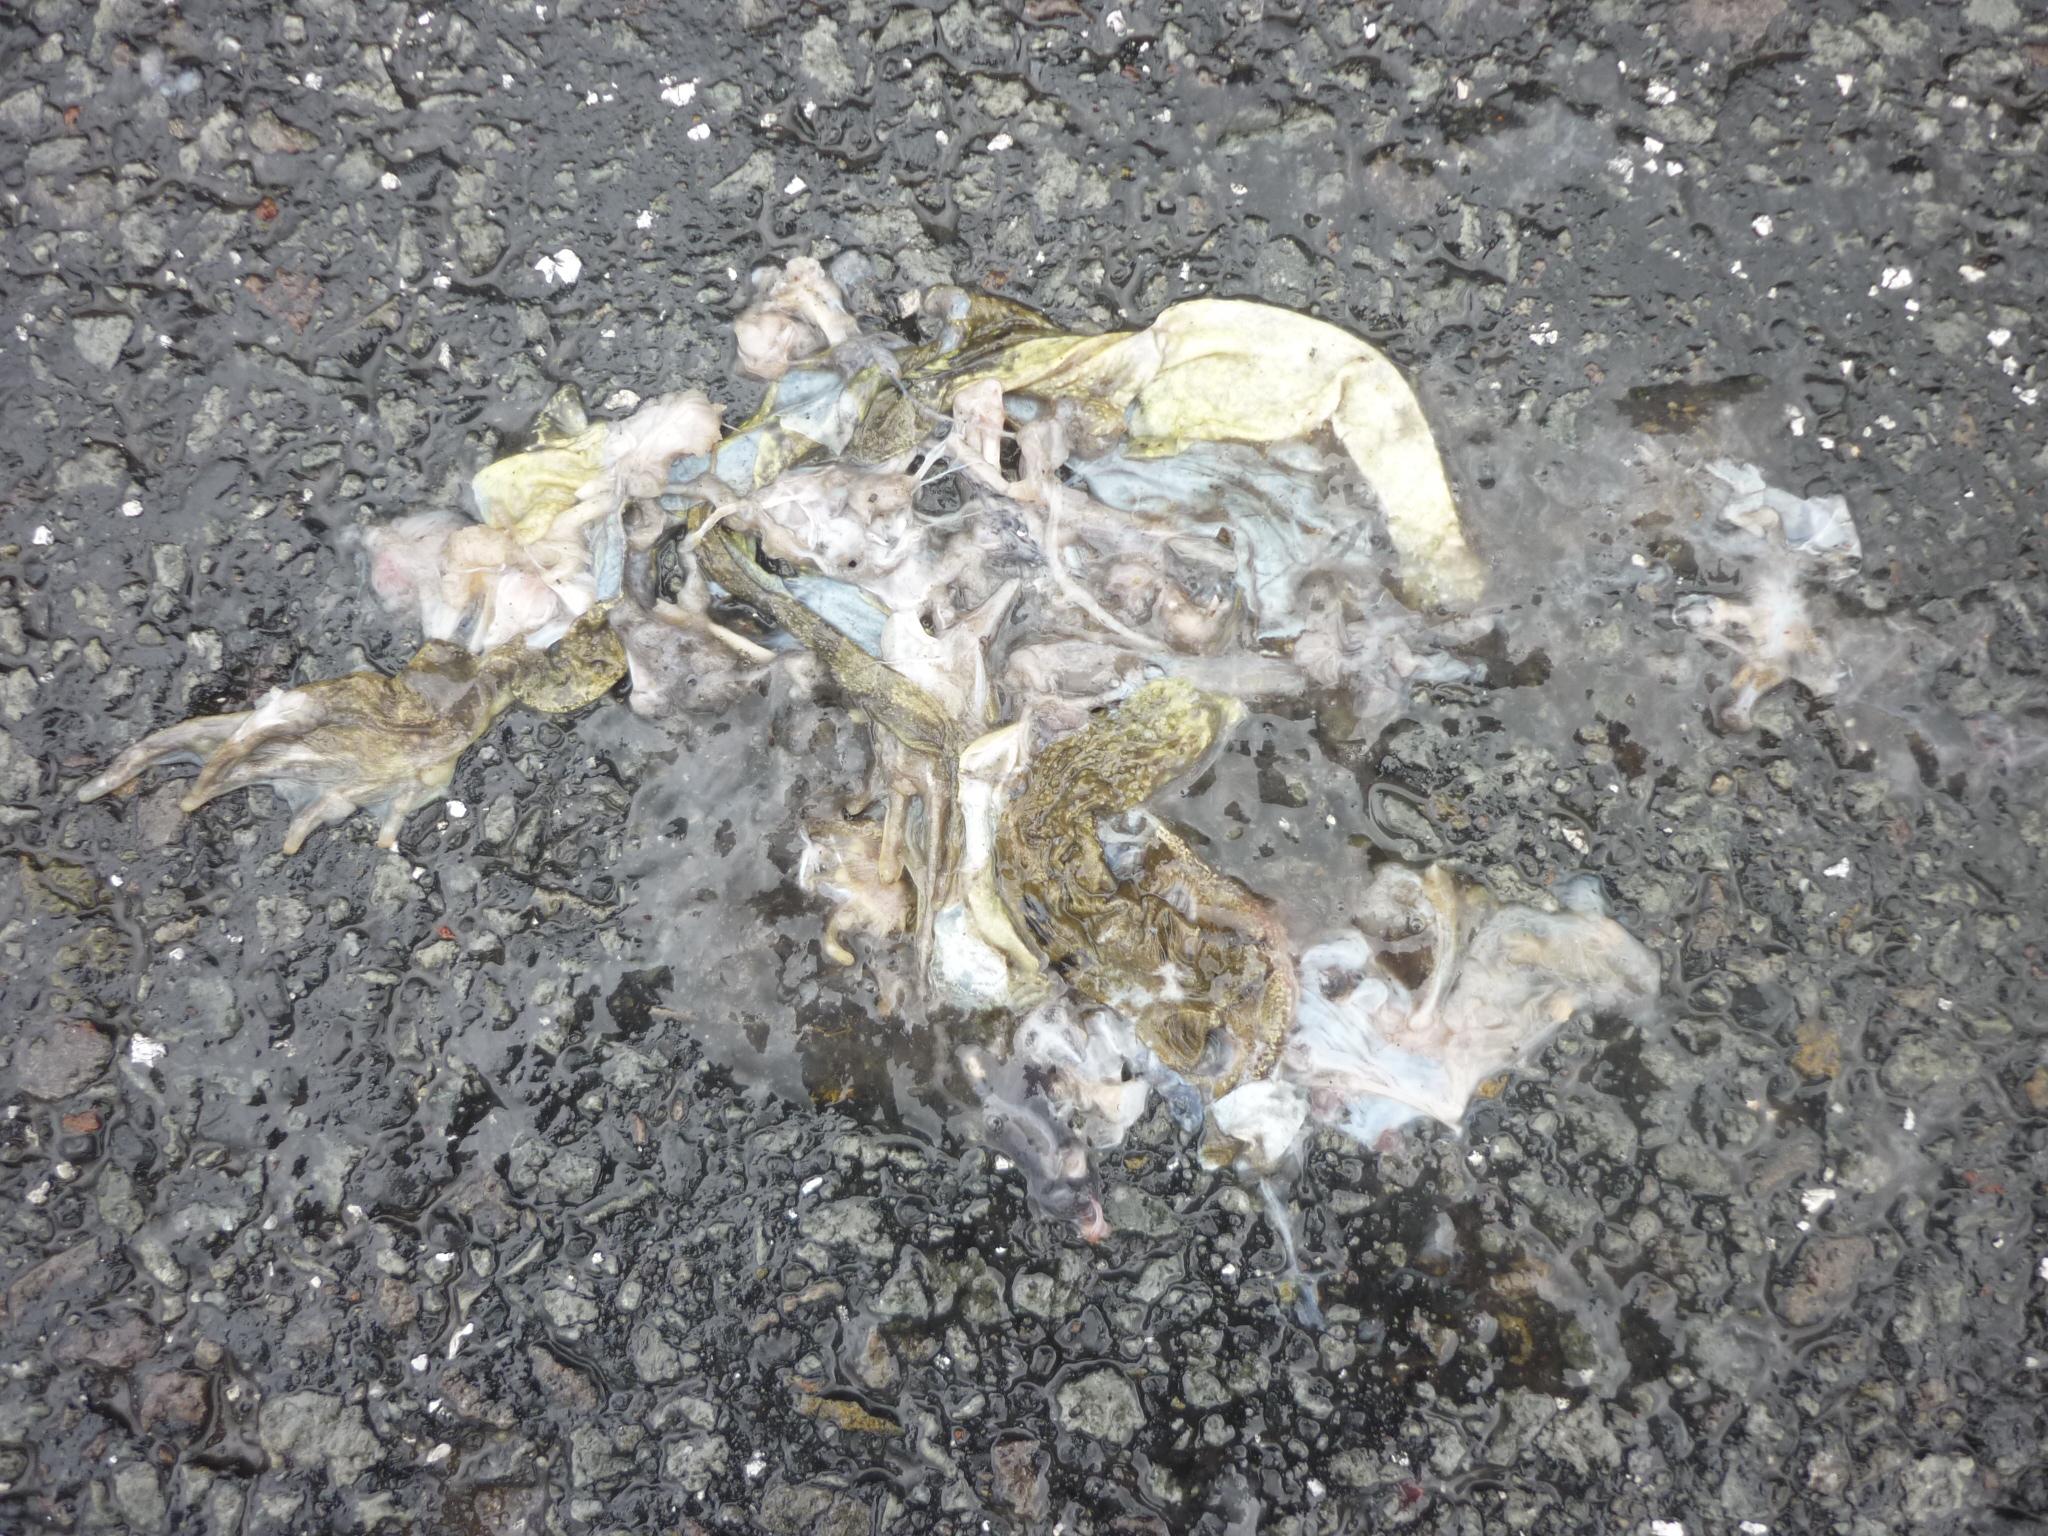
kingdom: Animalia
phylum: Chordata
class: Amphibia
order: Anura
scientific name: Anura
